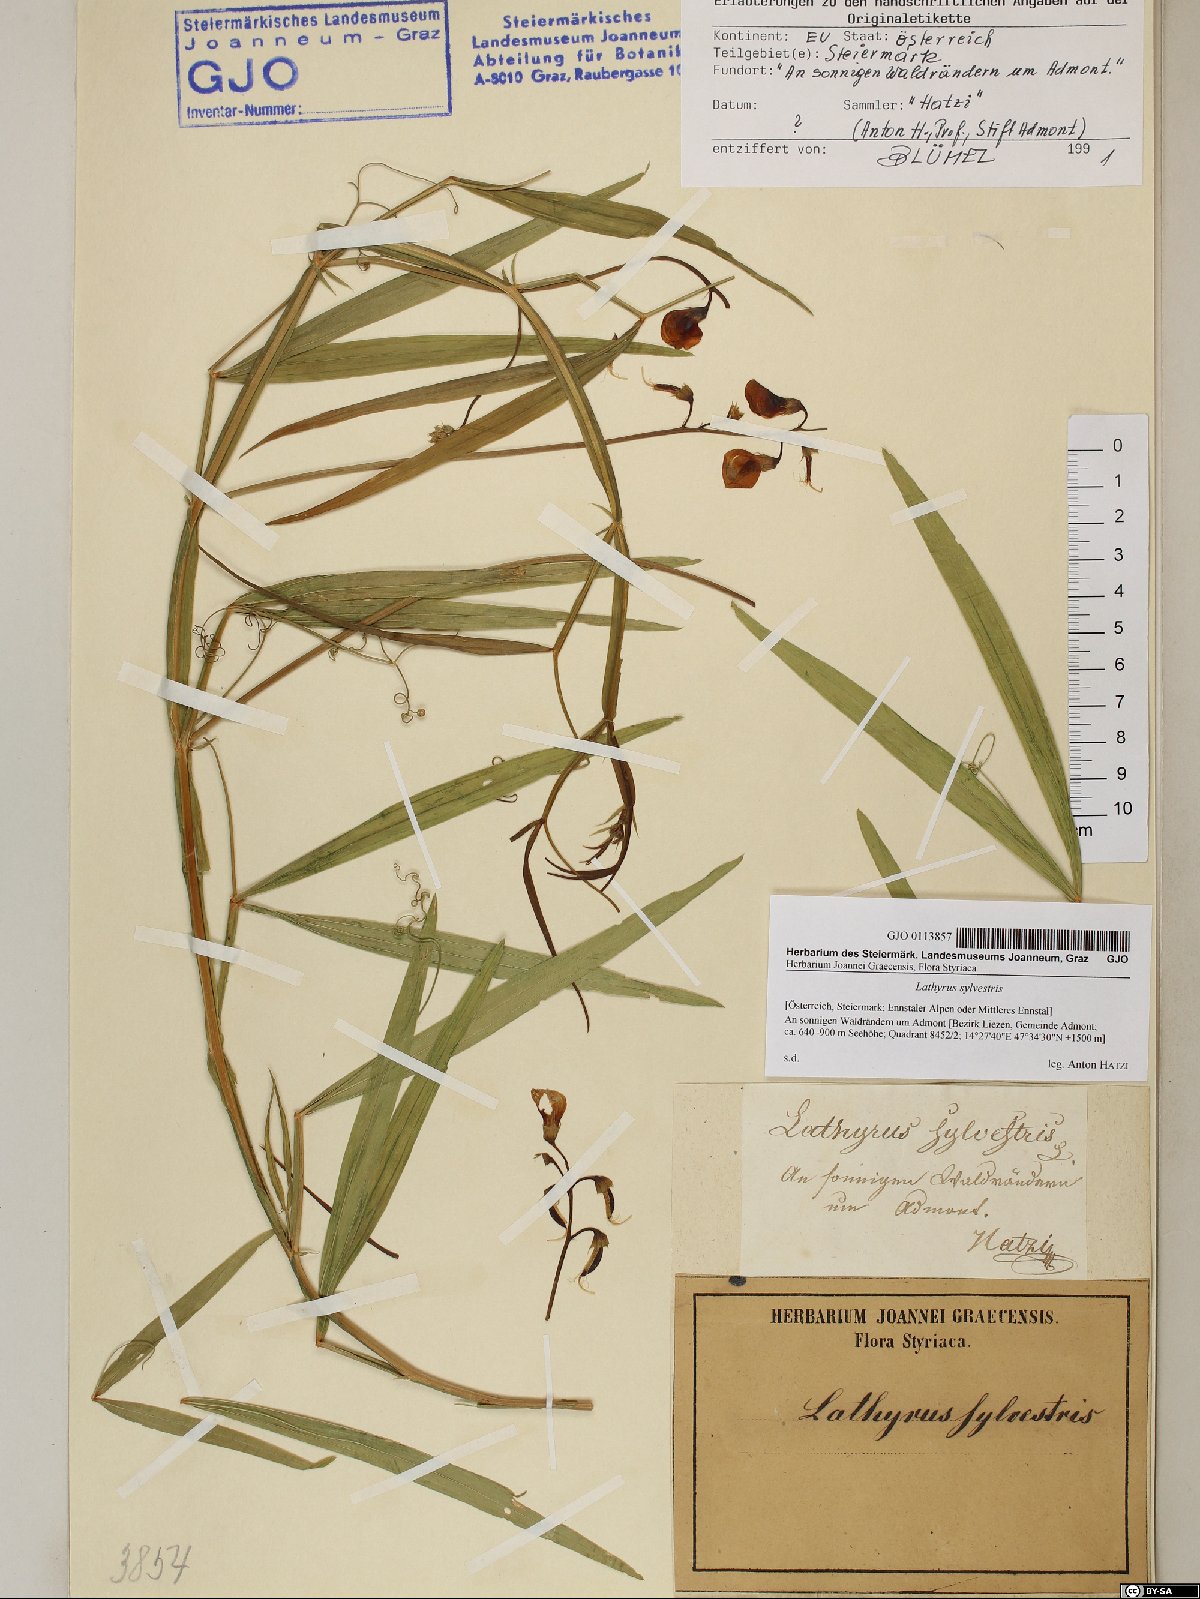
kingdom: Plantae
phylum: Tracheophyta
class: Magnoliopsida
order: Fabales
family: Fabaceae
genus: Lathyrus
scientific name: Lathyrus sylvestris
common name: Flat pea
